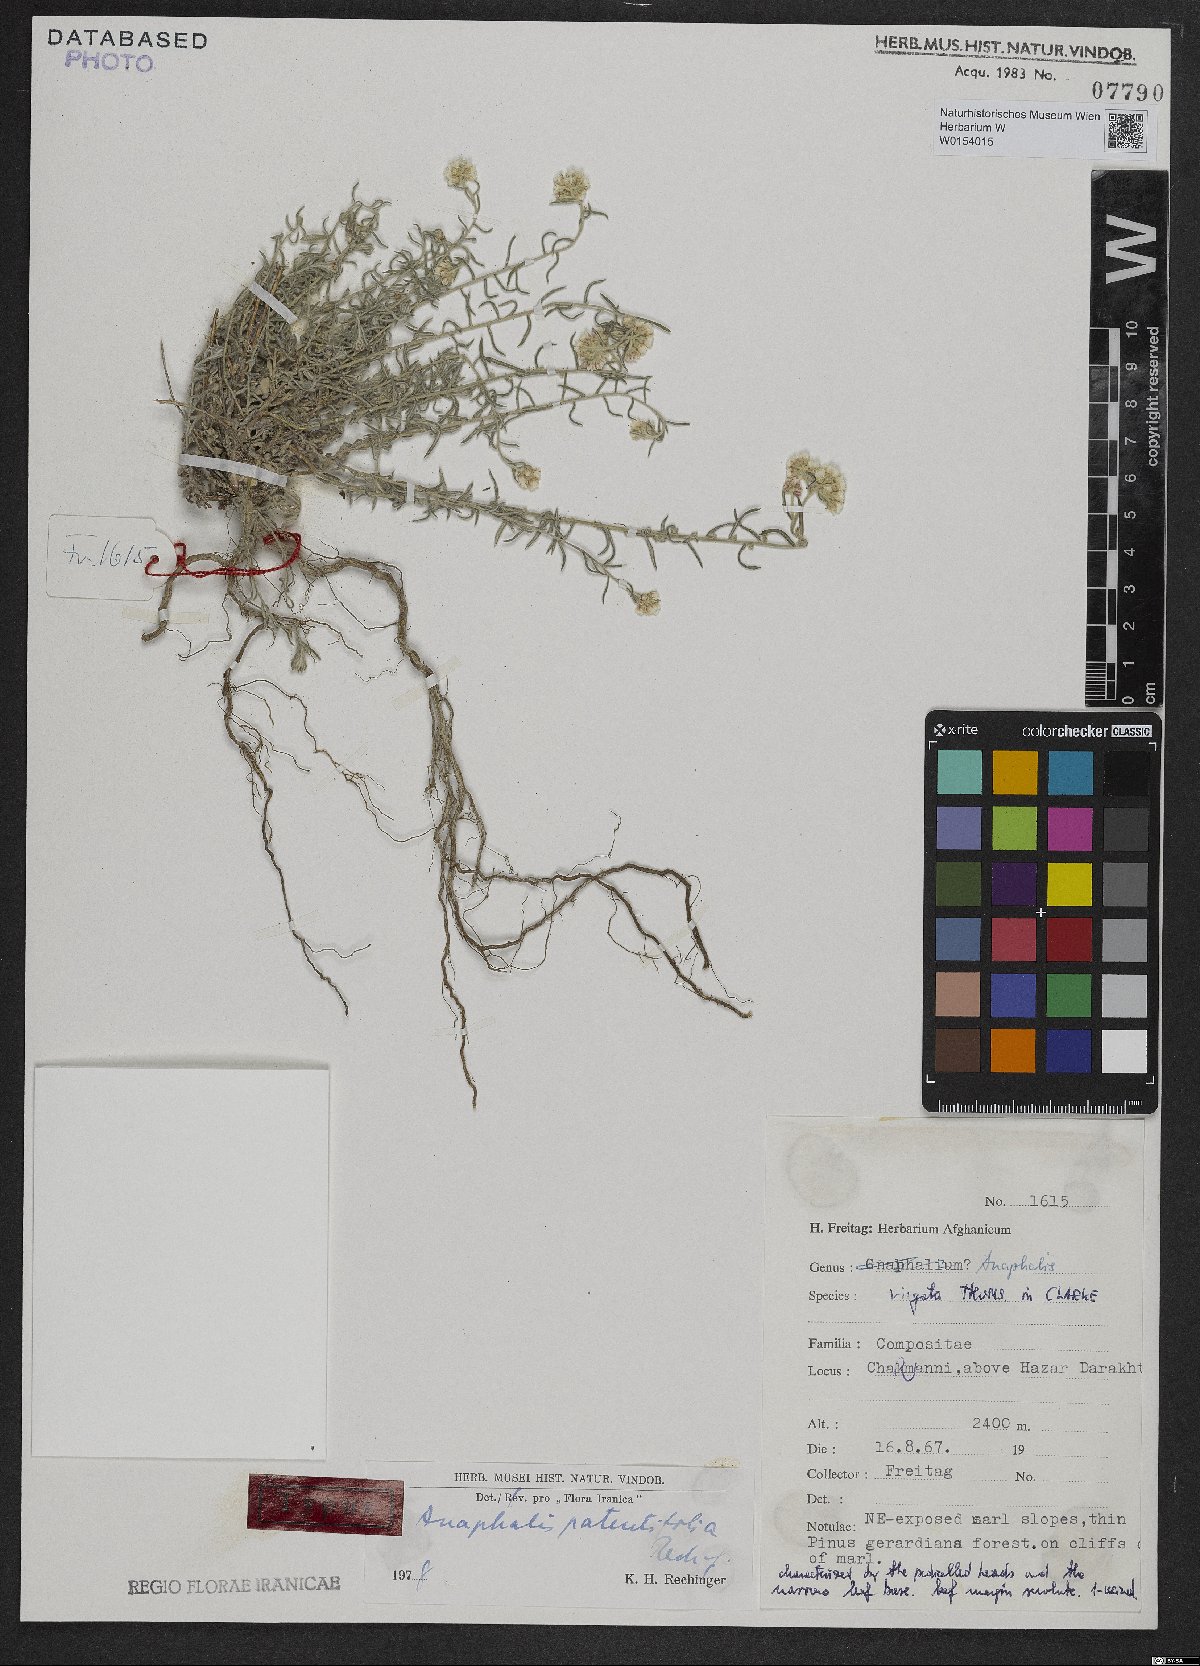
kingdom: Plantae
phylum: Tracheophyta
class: Magnoliopsida
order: Asterales
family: Asteraceae
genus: Anaphalis
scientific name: Anaphalis patentifolia
